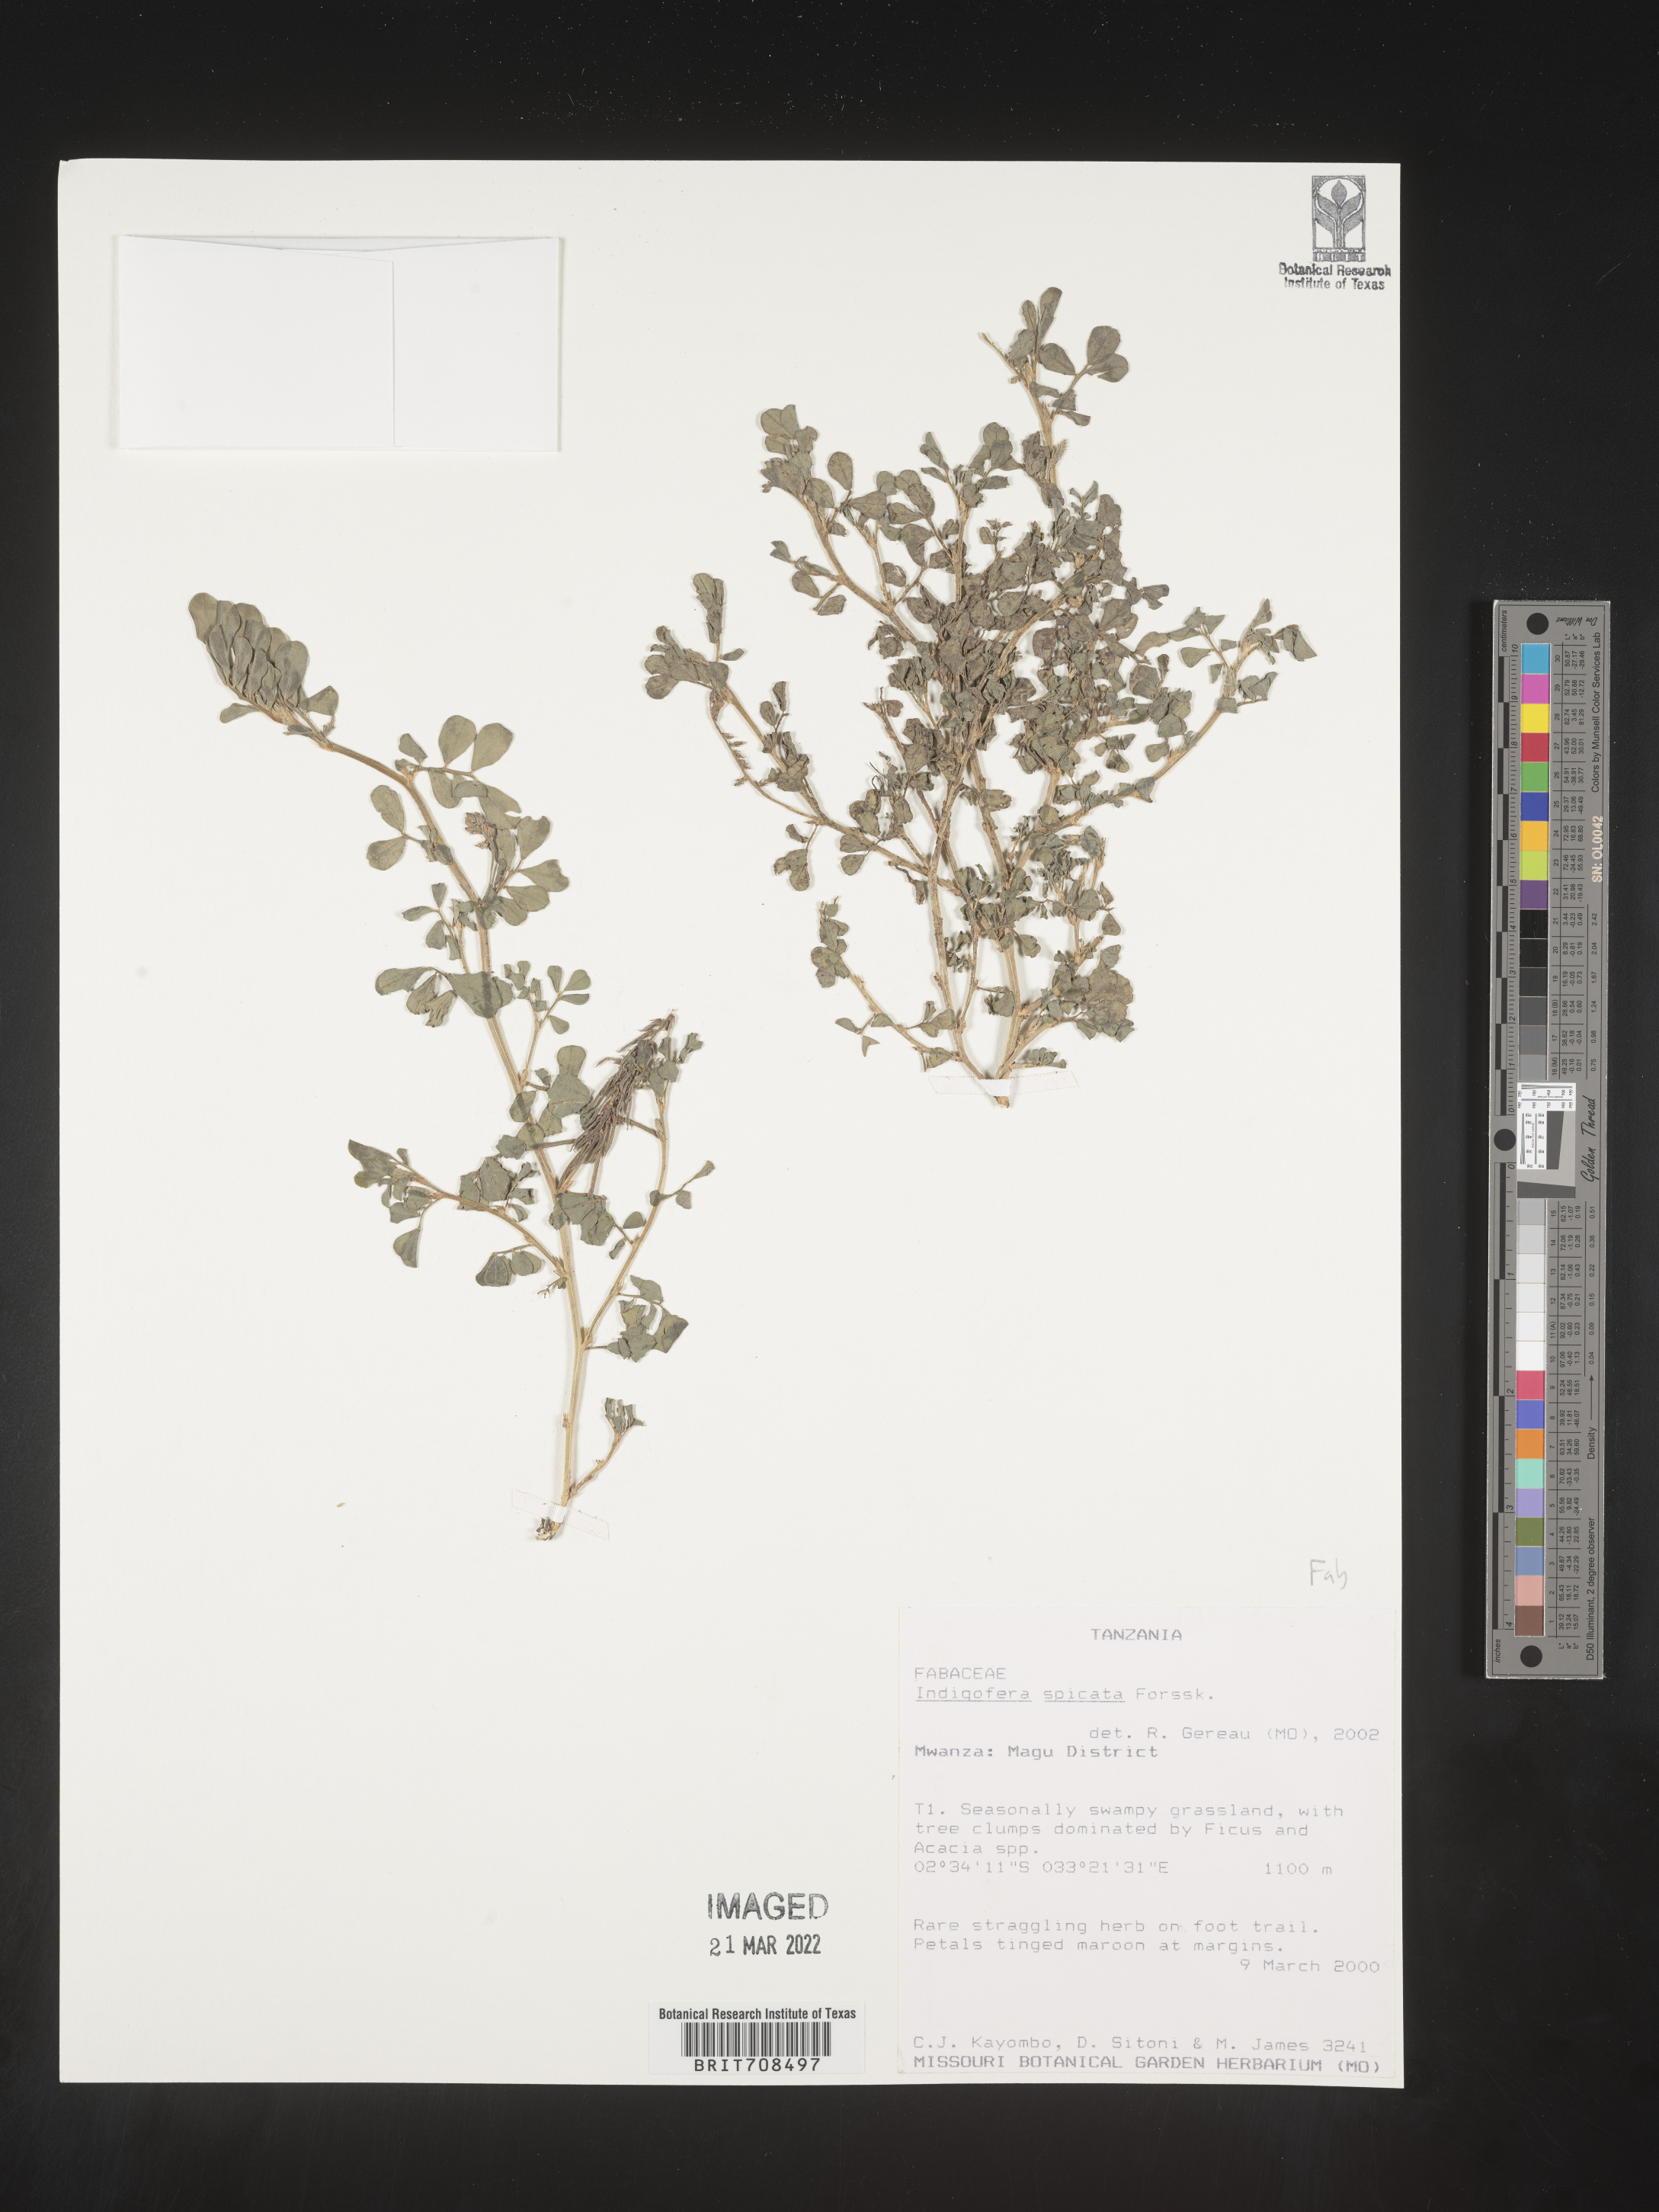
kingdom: Plantae
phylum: Tracheophyta
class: Magnoliopsida
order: Fabales
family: Fabaceae
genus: Indigofera
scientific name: Indigofera
